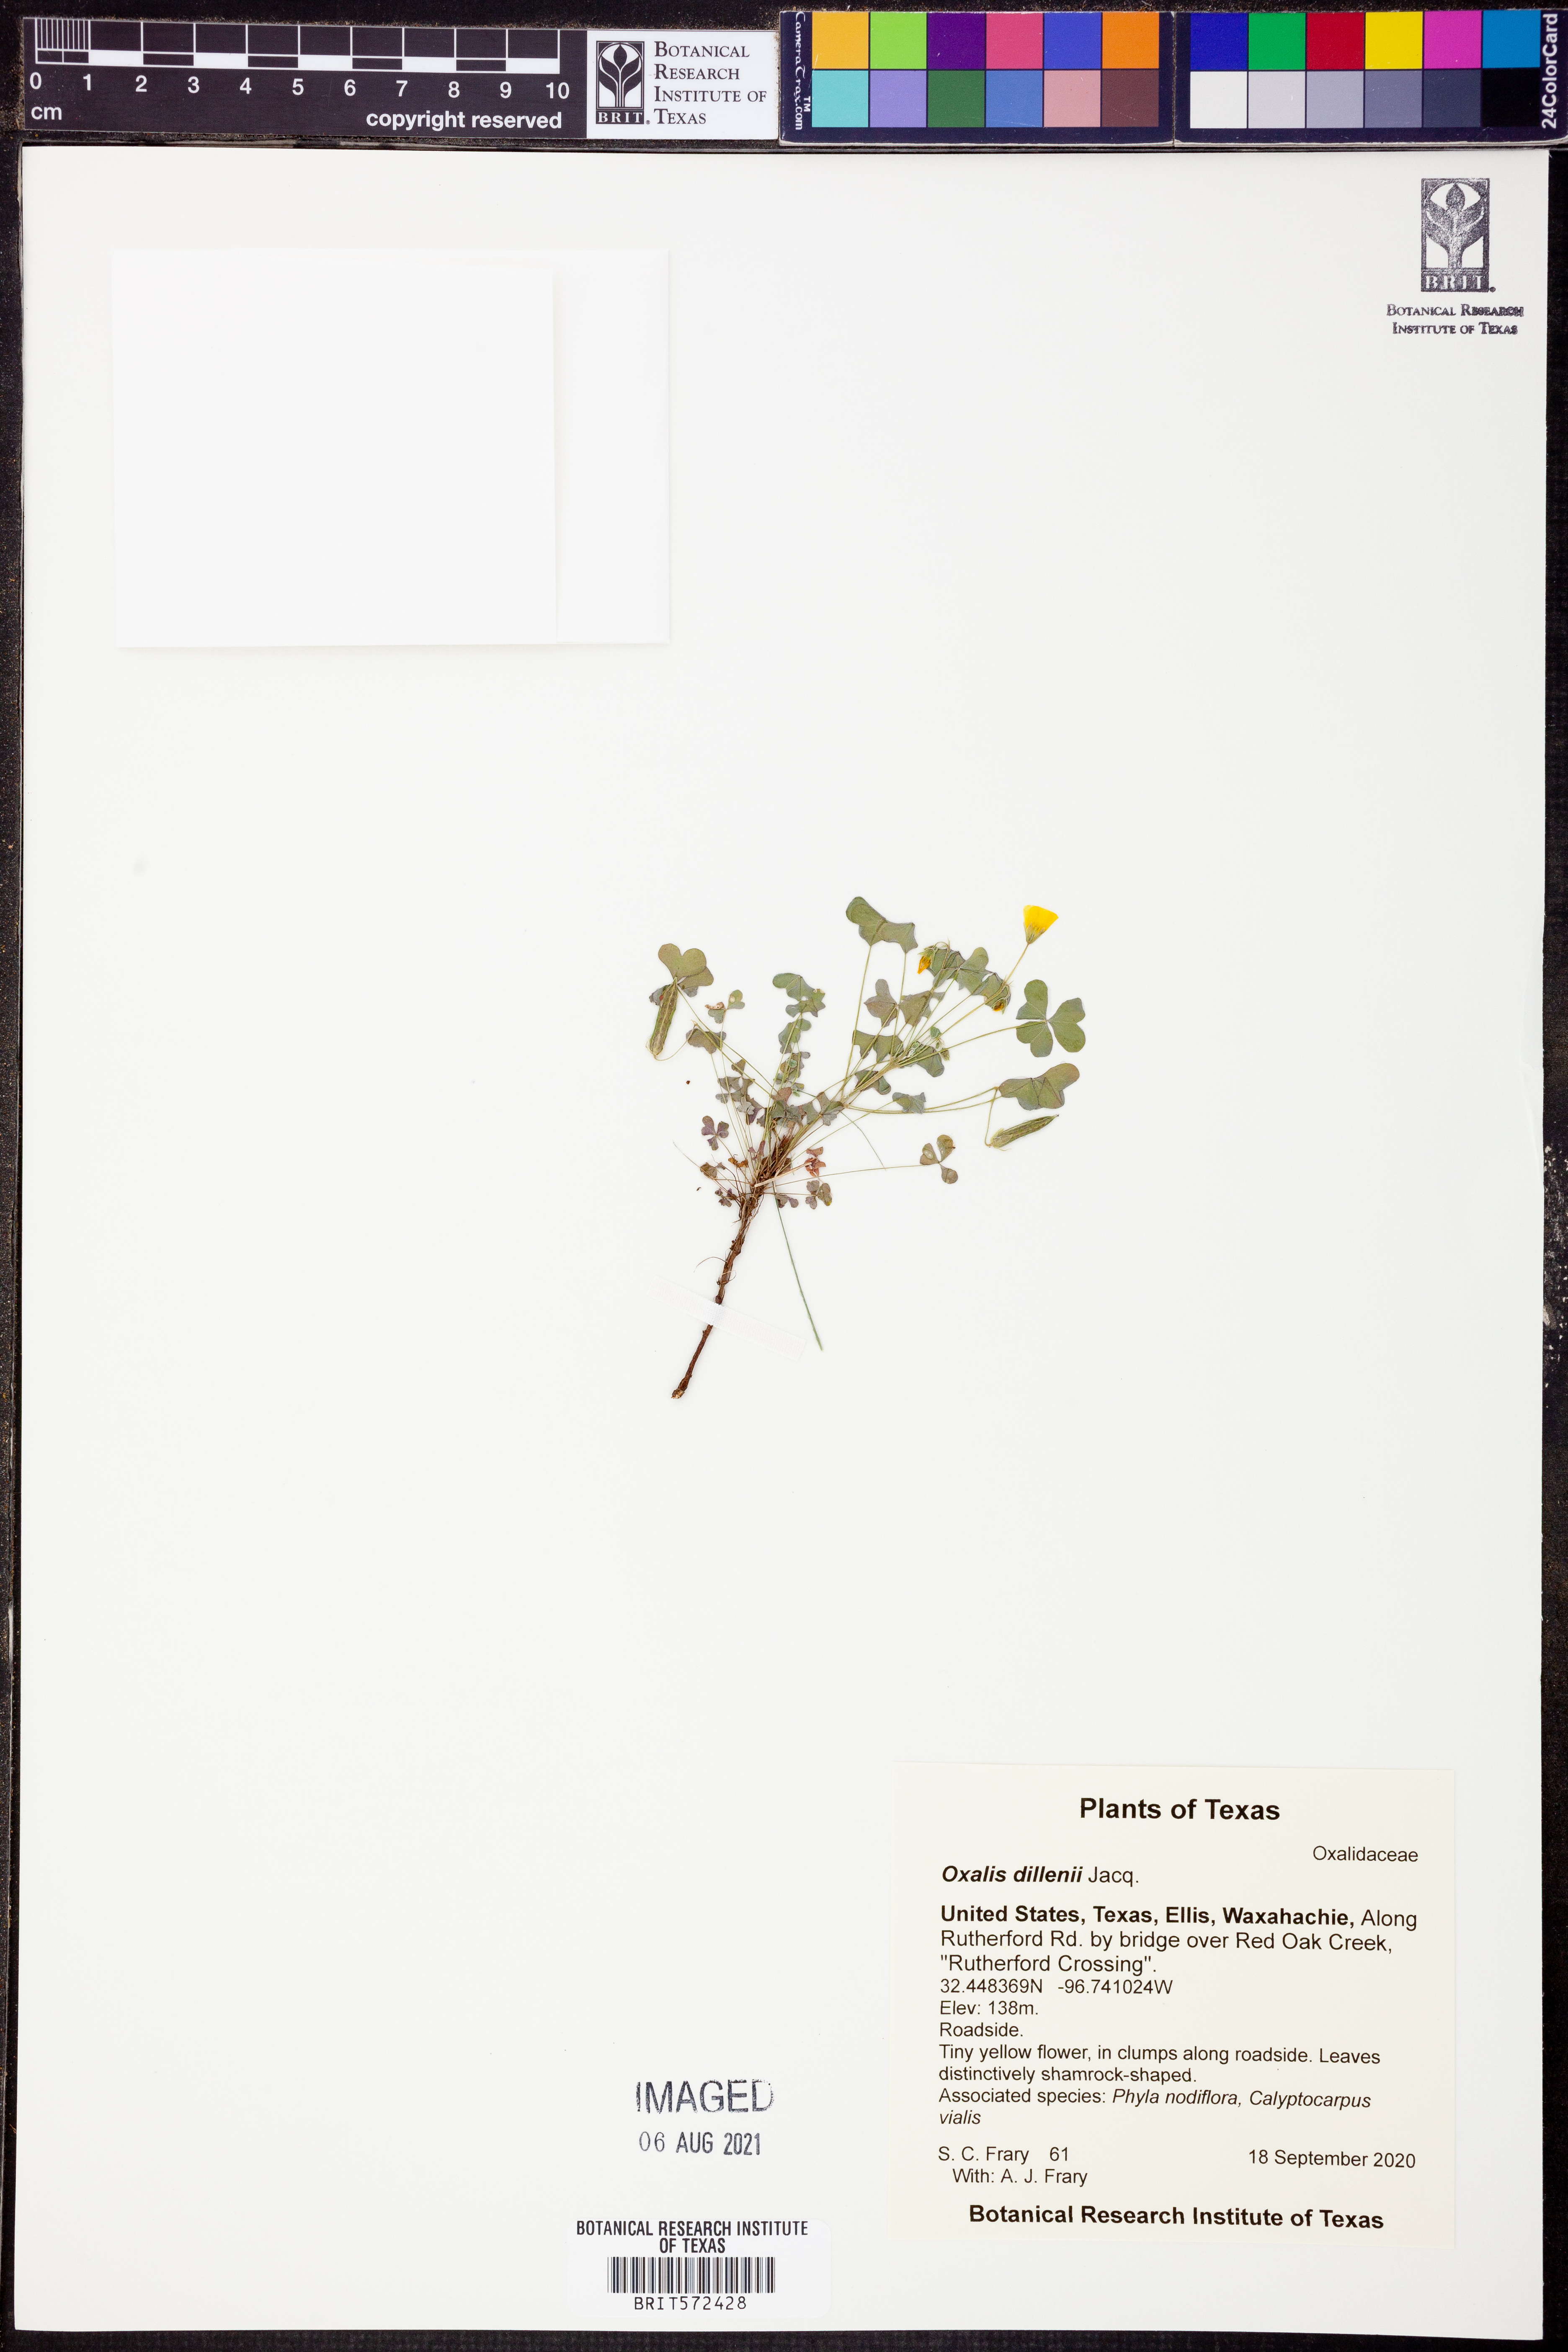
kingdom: Plantae
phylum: Tracheophyta
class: Magnoliopsida
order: Oxalidales
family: Oxalidaceae
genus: Oxalis
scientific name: Oxalis dillenii
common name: Sussex yellow-sorrel
